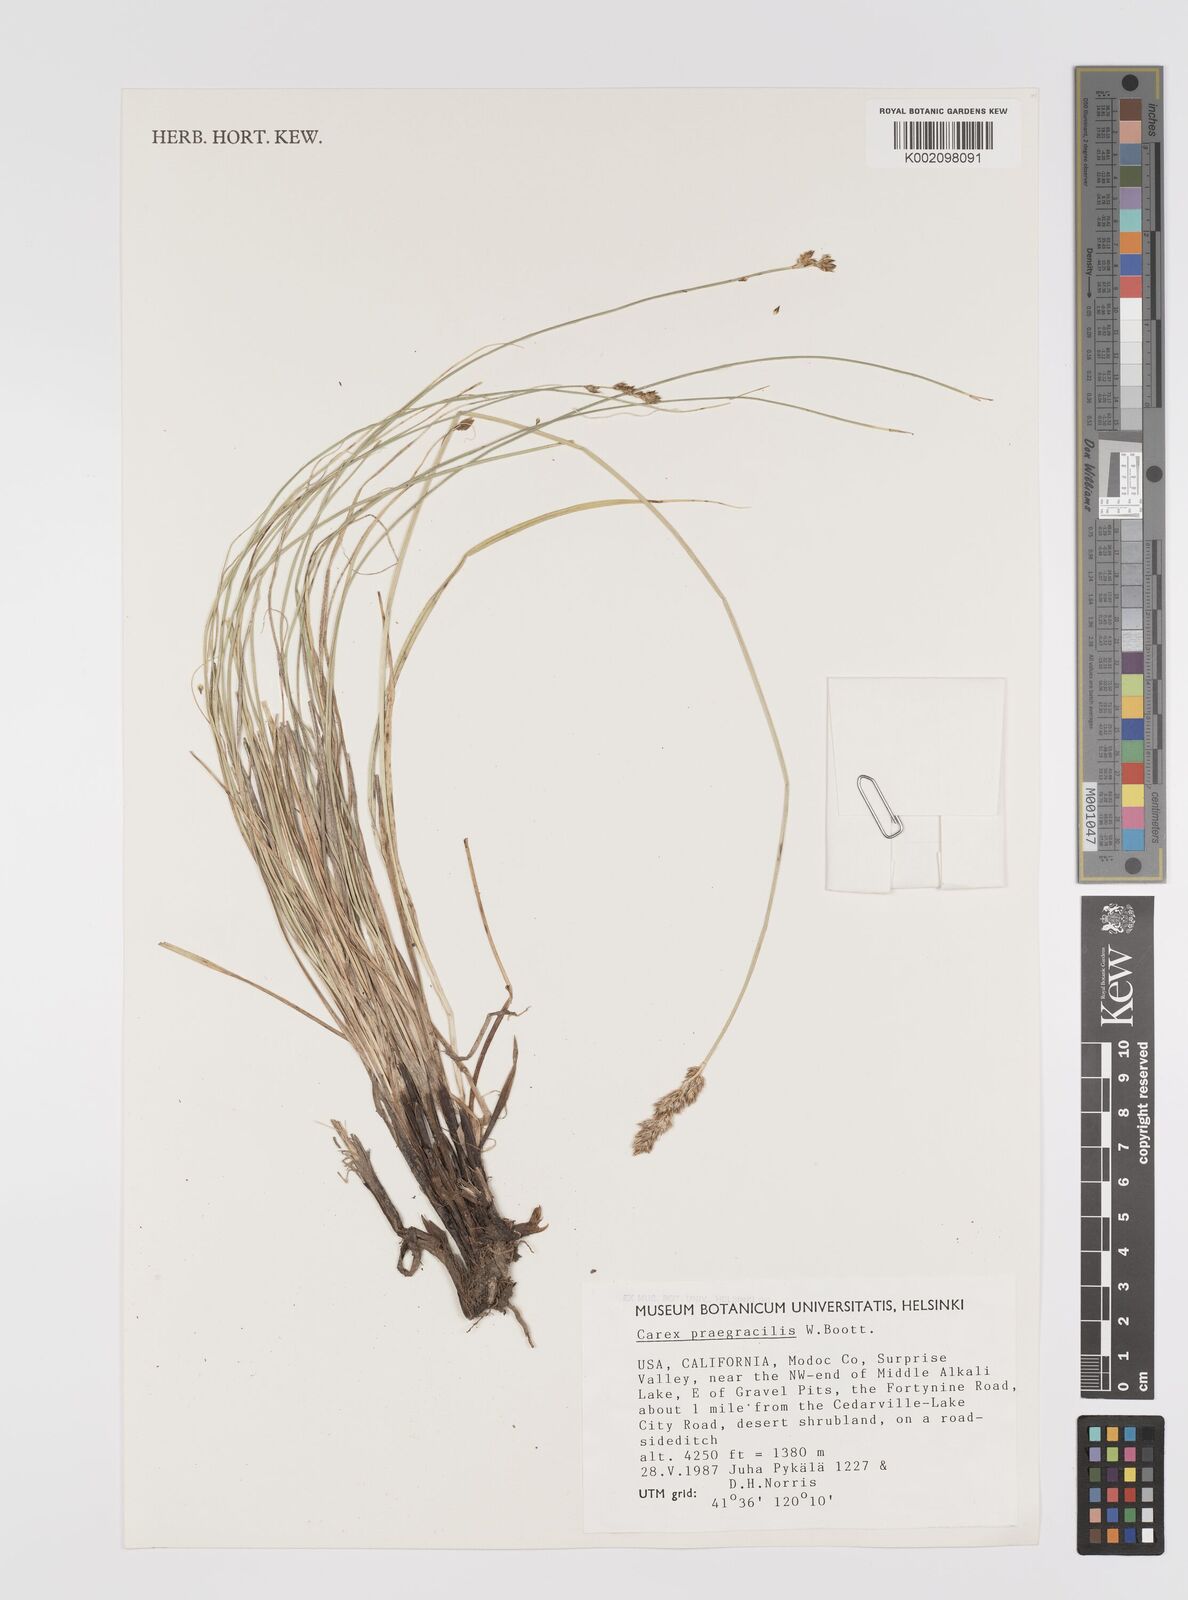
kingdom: Plantae
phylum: Tracheophyta
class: Liliopsida
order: Poales
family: Cyperaceae
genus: Carex
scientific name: Carex praegracilis
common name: Black creeper sedge
